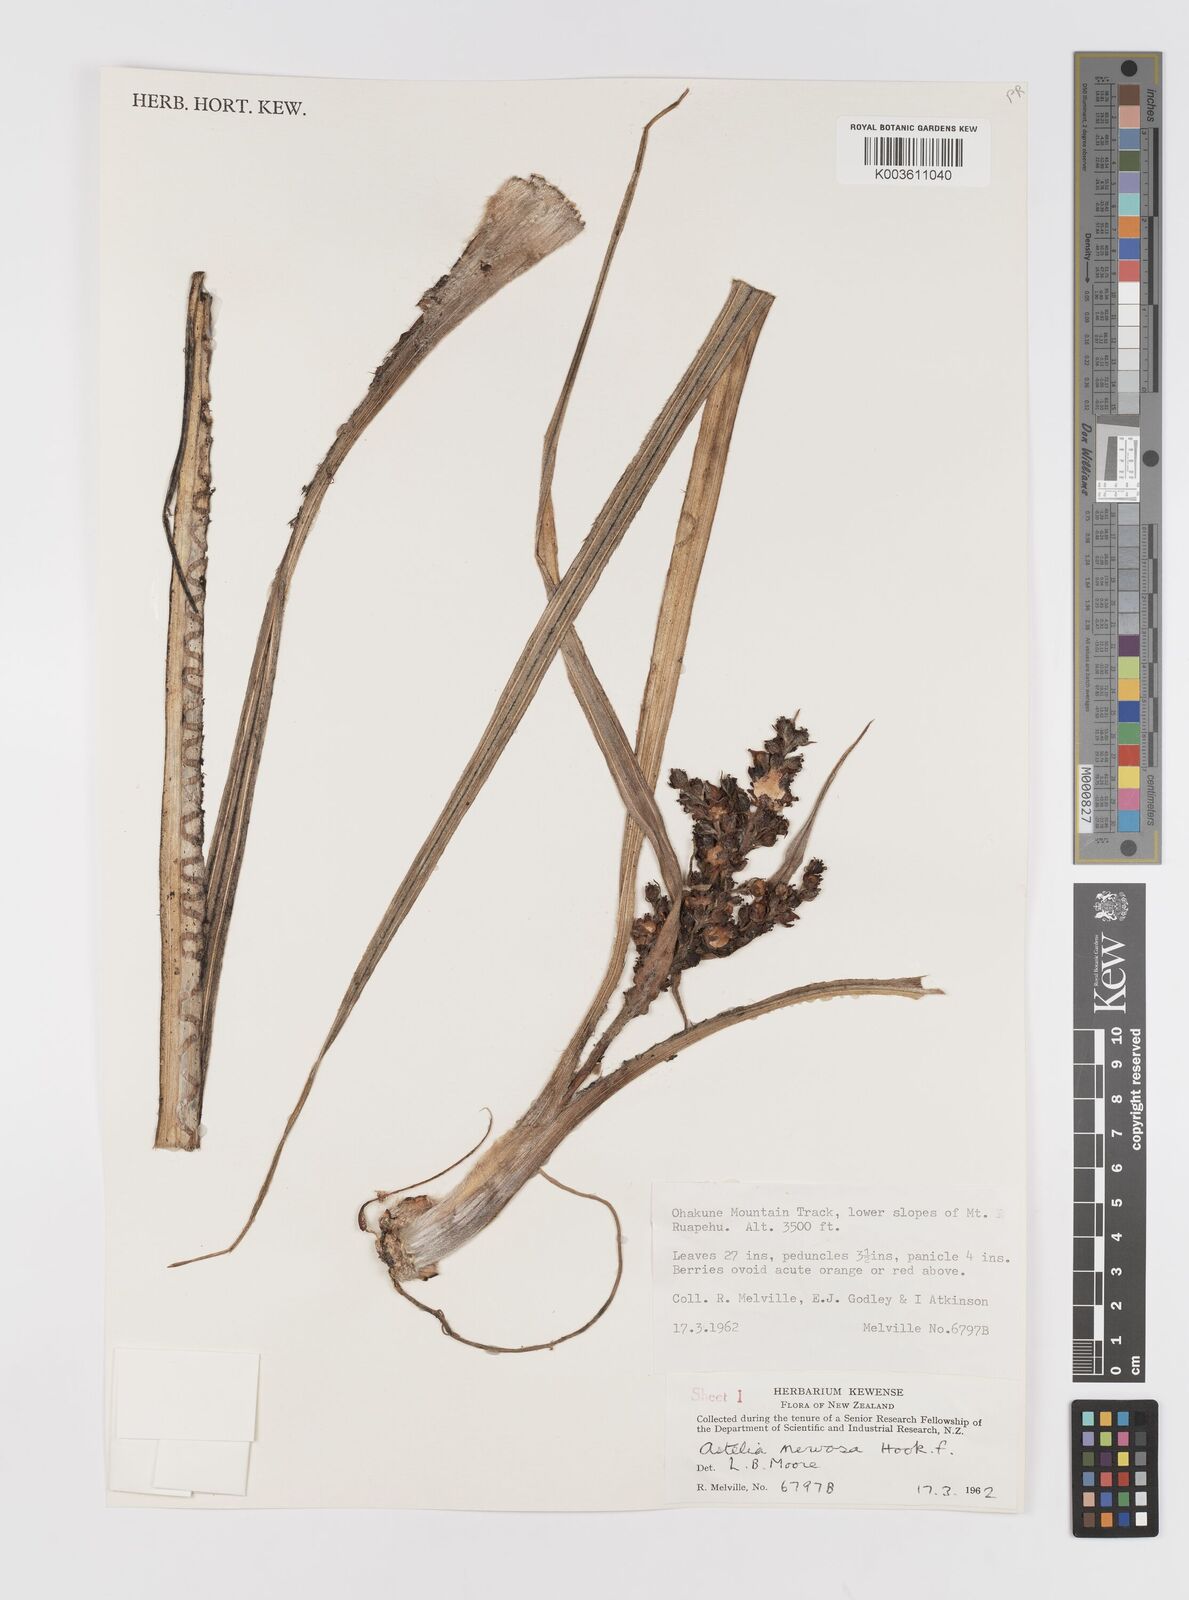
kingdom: Plantae
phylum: Tracheophyta
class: Liliopsida
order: Asparagales
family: Asteliaceae
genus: Astelia
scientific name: Astelia nervosa
